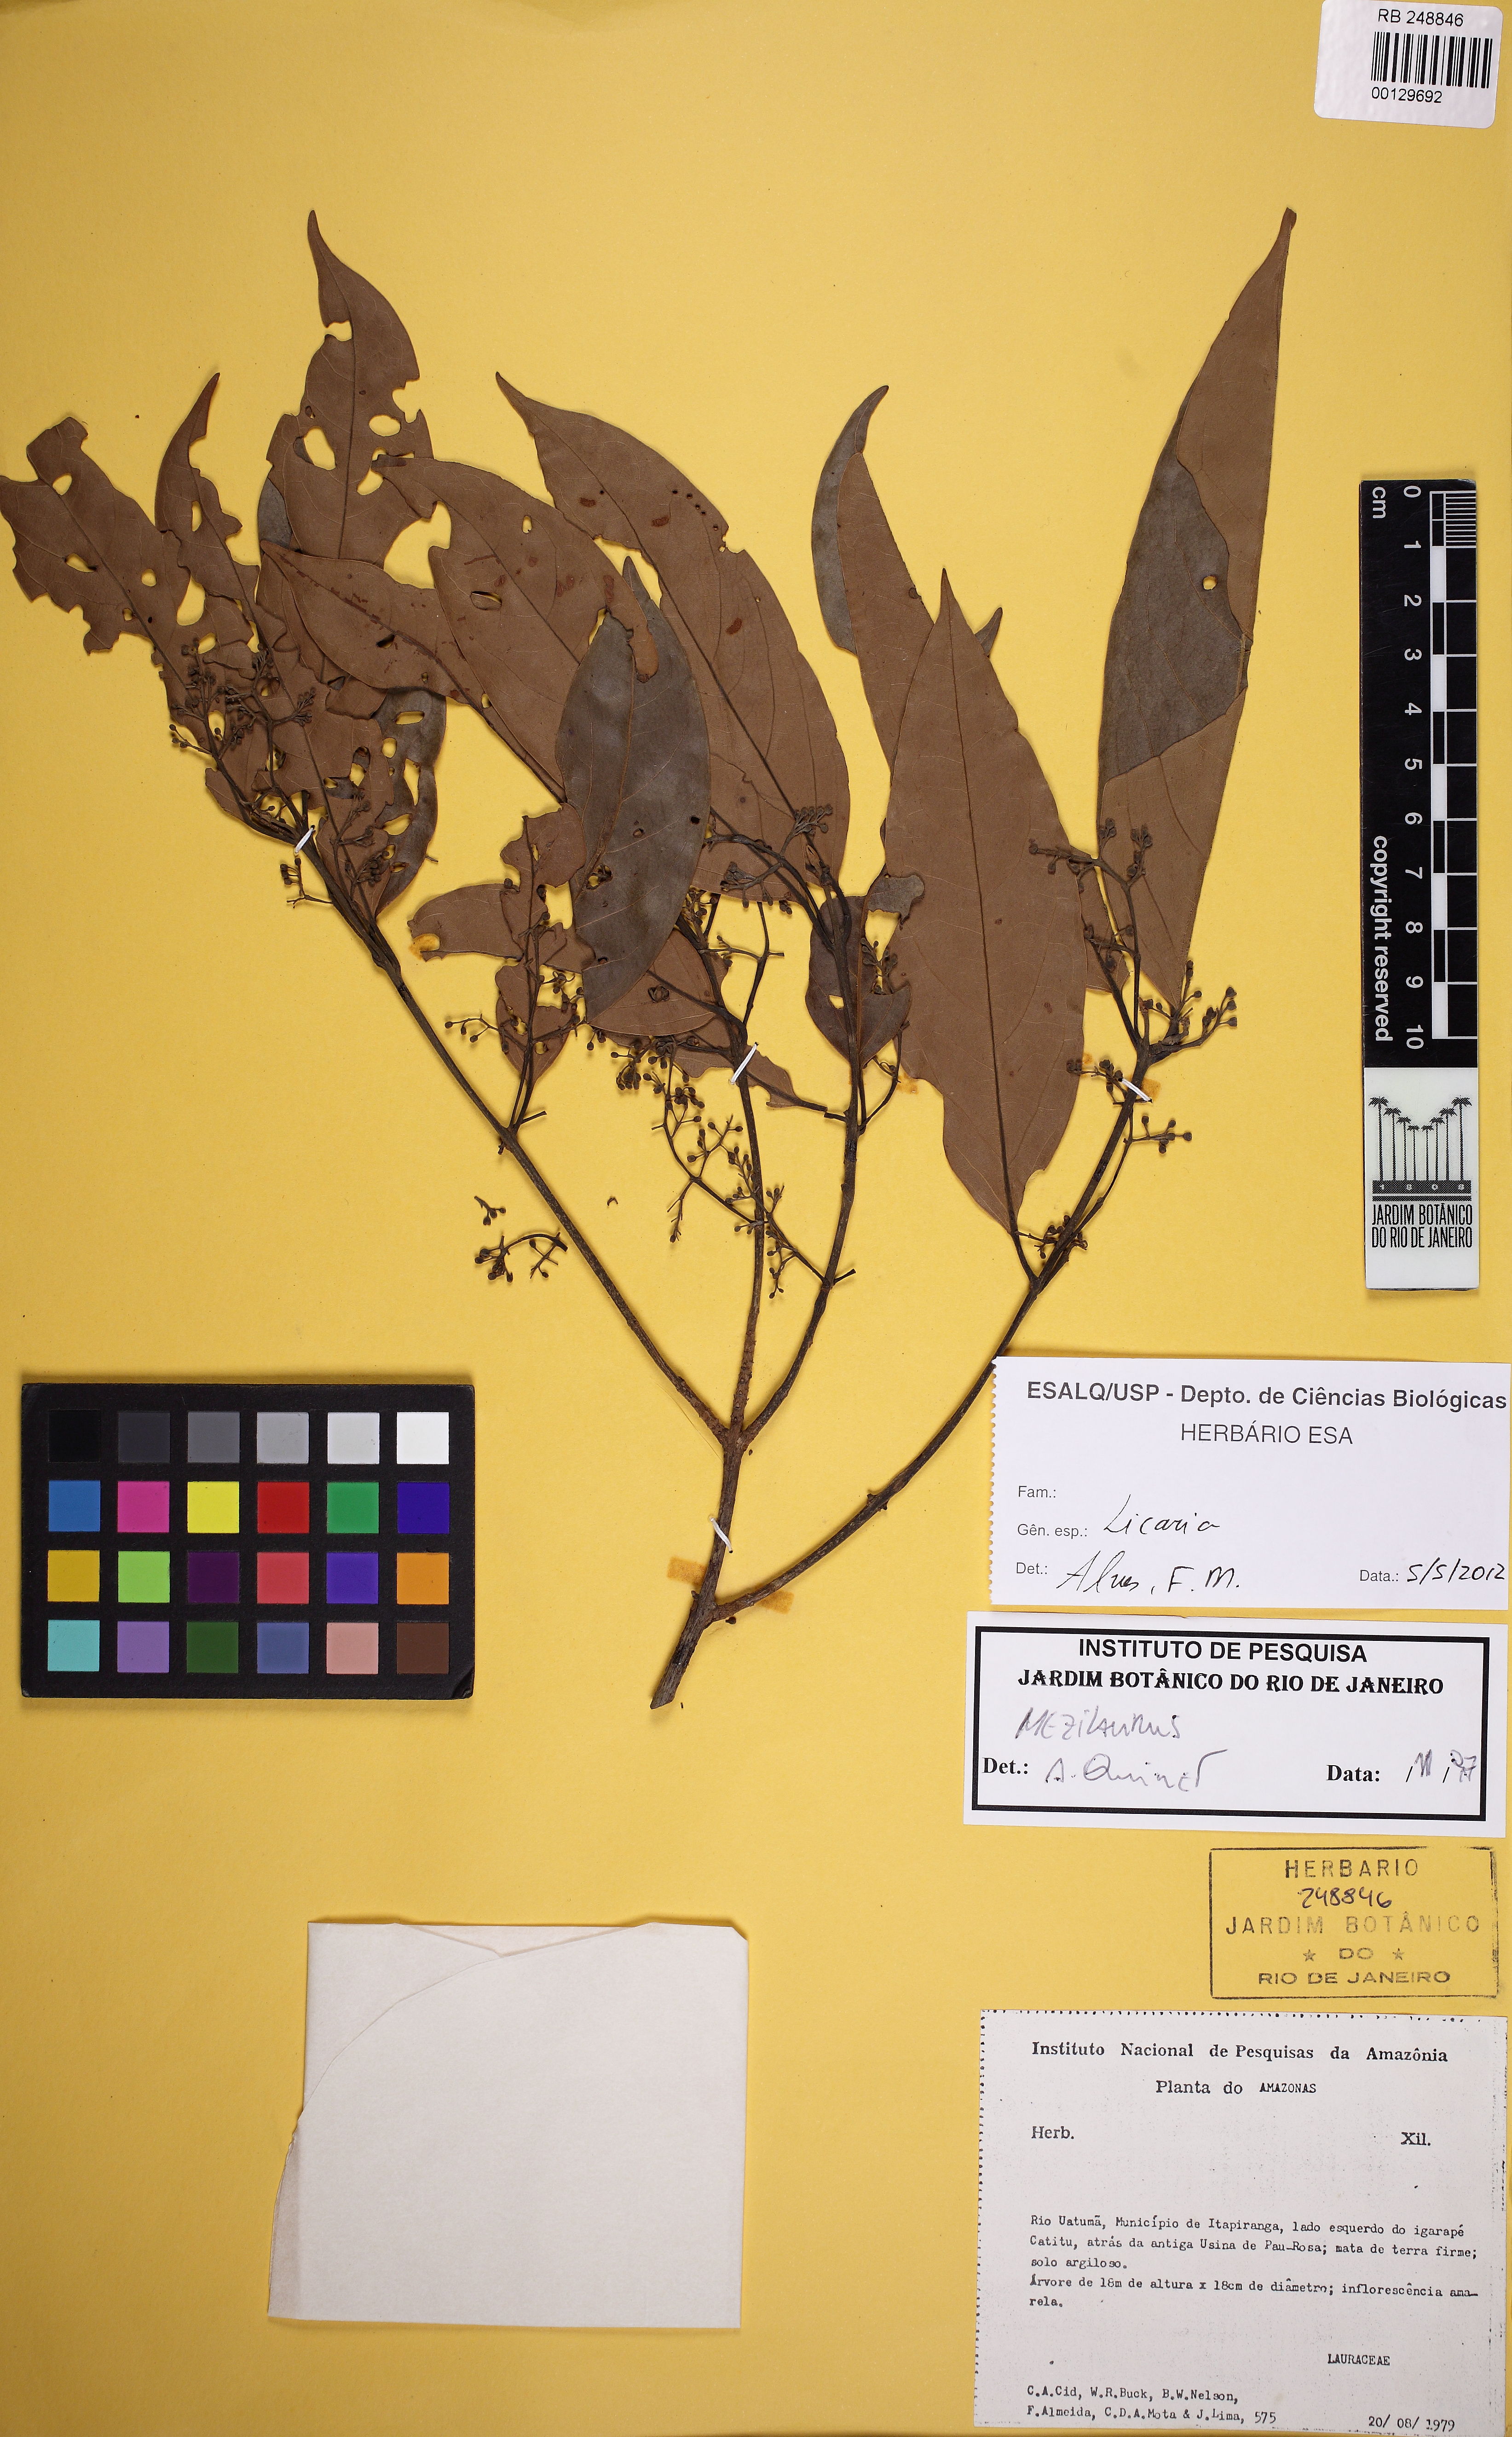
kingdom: Plantae
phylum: Tracheophyta
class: Magnoliopsida
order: Laurales
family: Lauraceae
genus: Licaria
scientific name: Licaria chrysophylla
